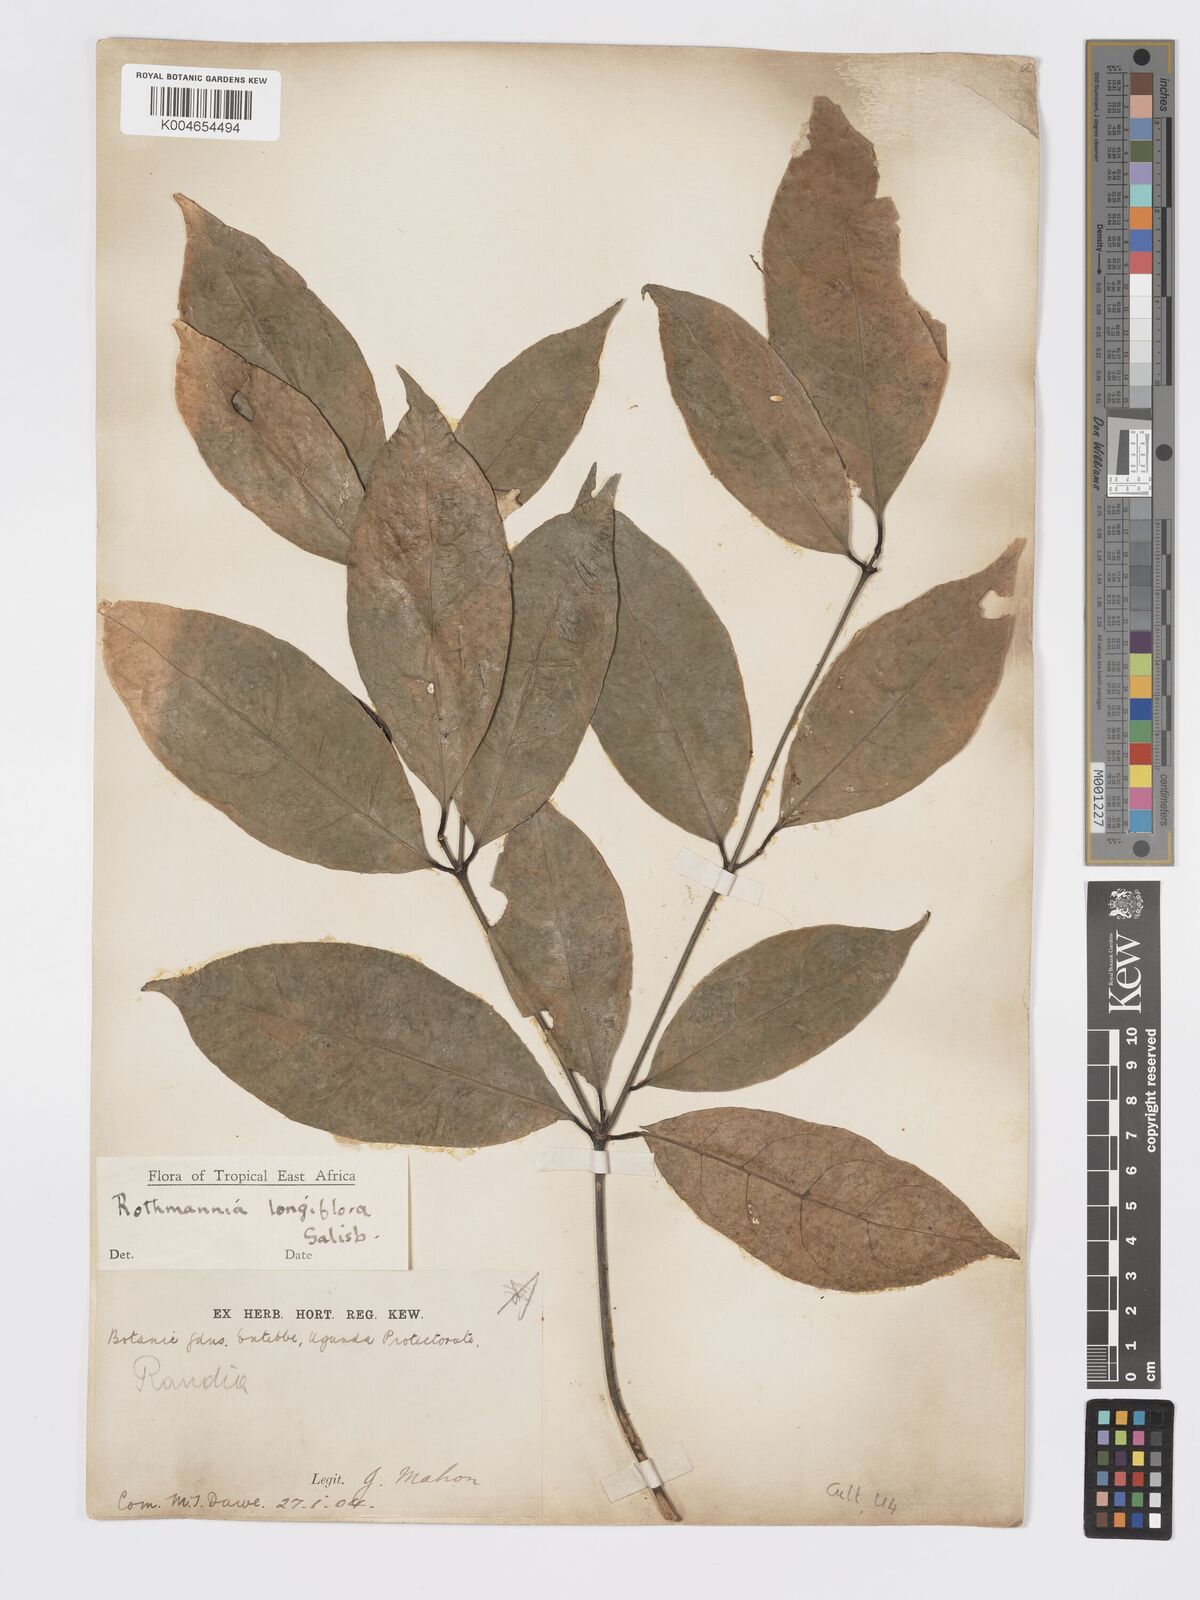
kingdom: Plantae
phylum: Tracheophyta
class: Magnoliopsida
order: Gentianales
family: Rubiaceae
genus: Rothmannia
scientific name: Rothmannia longiflora
